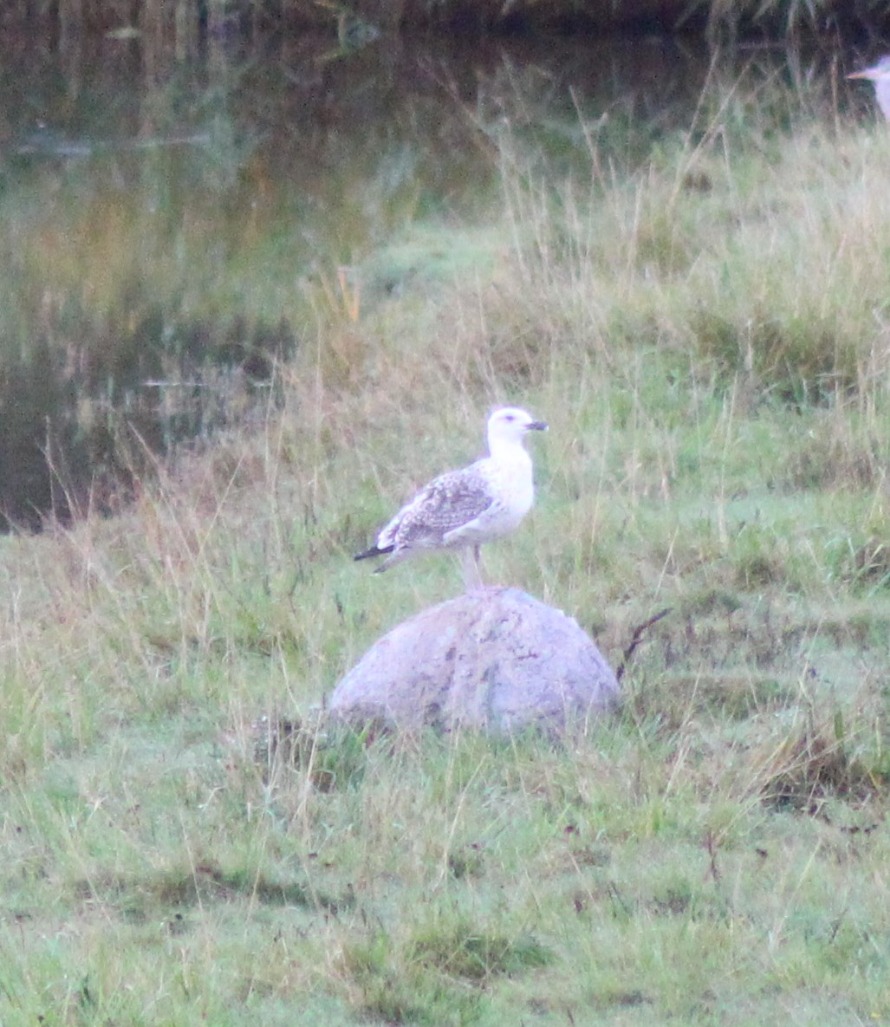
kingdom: Animalia
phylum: Chordata
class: Aves
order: Charadriiformes
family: Laridae
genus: Larus
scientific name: Larus marinus
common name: Svartbag
